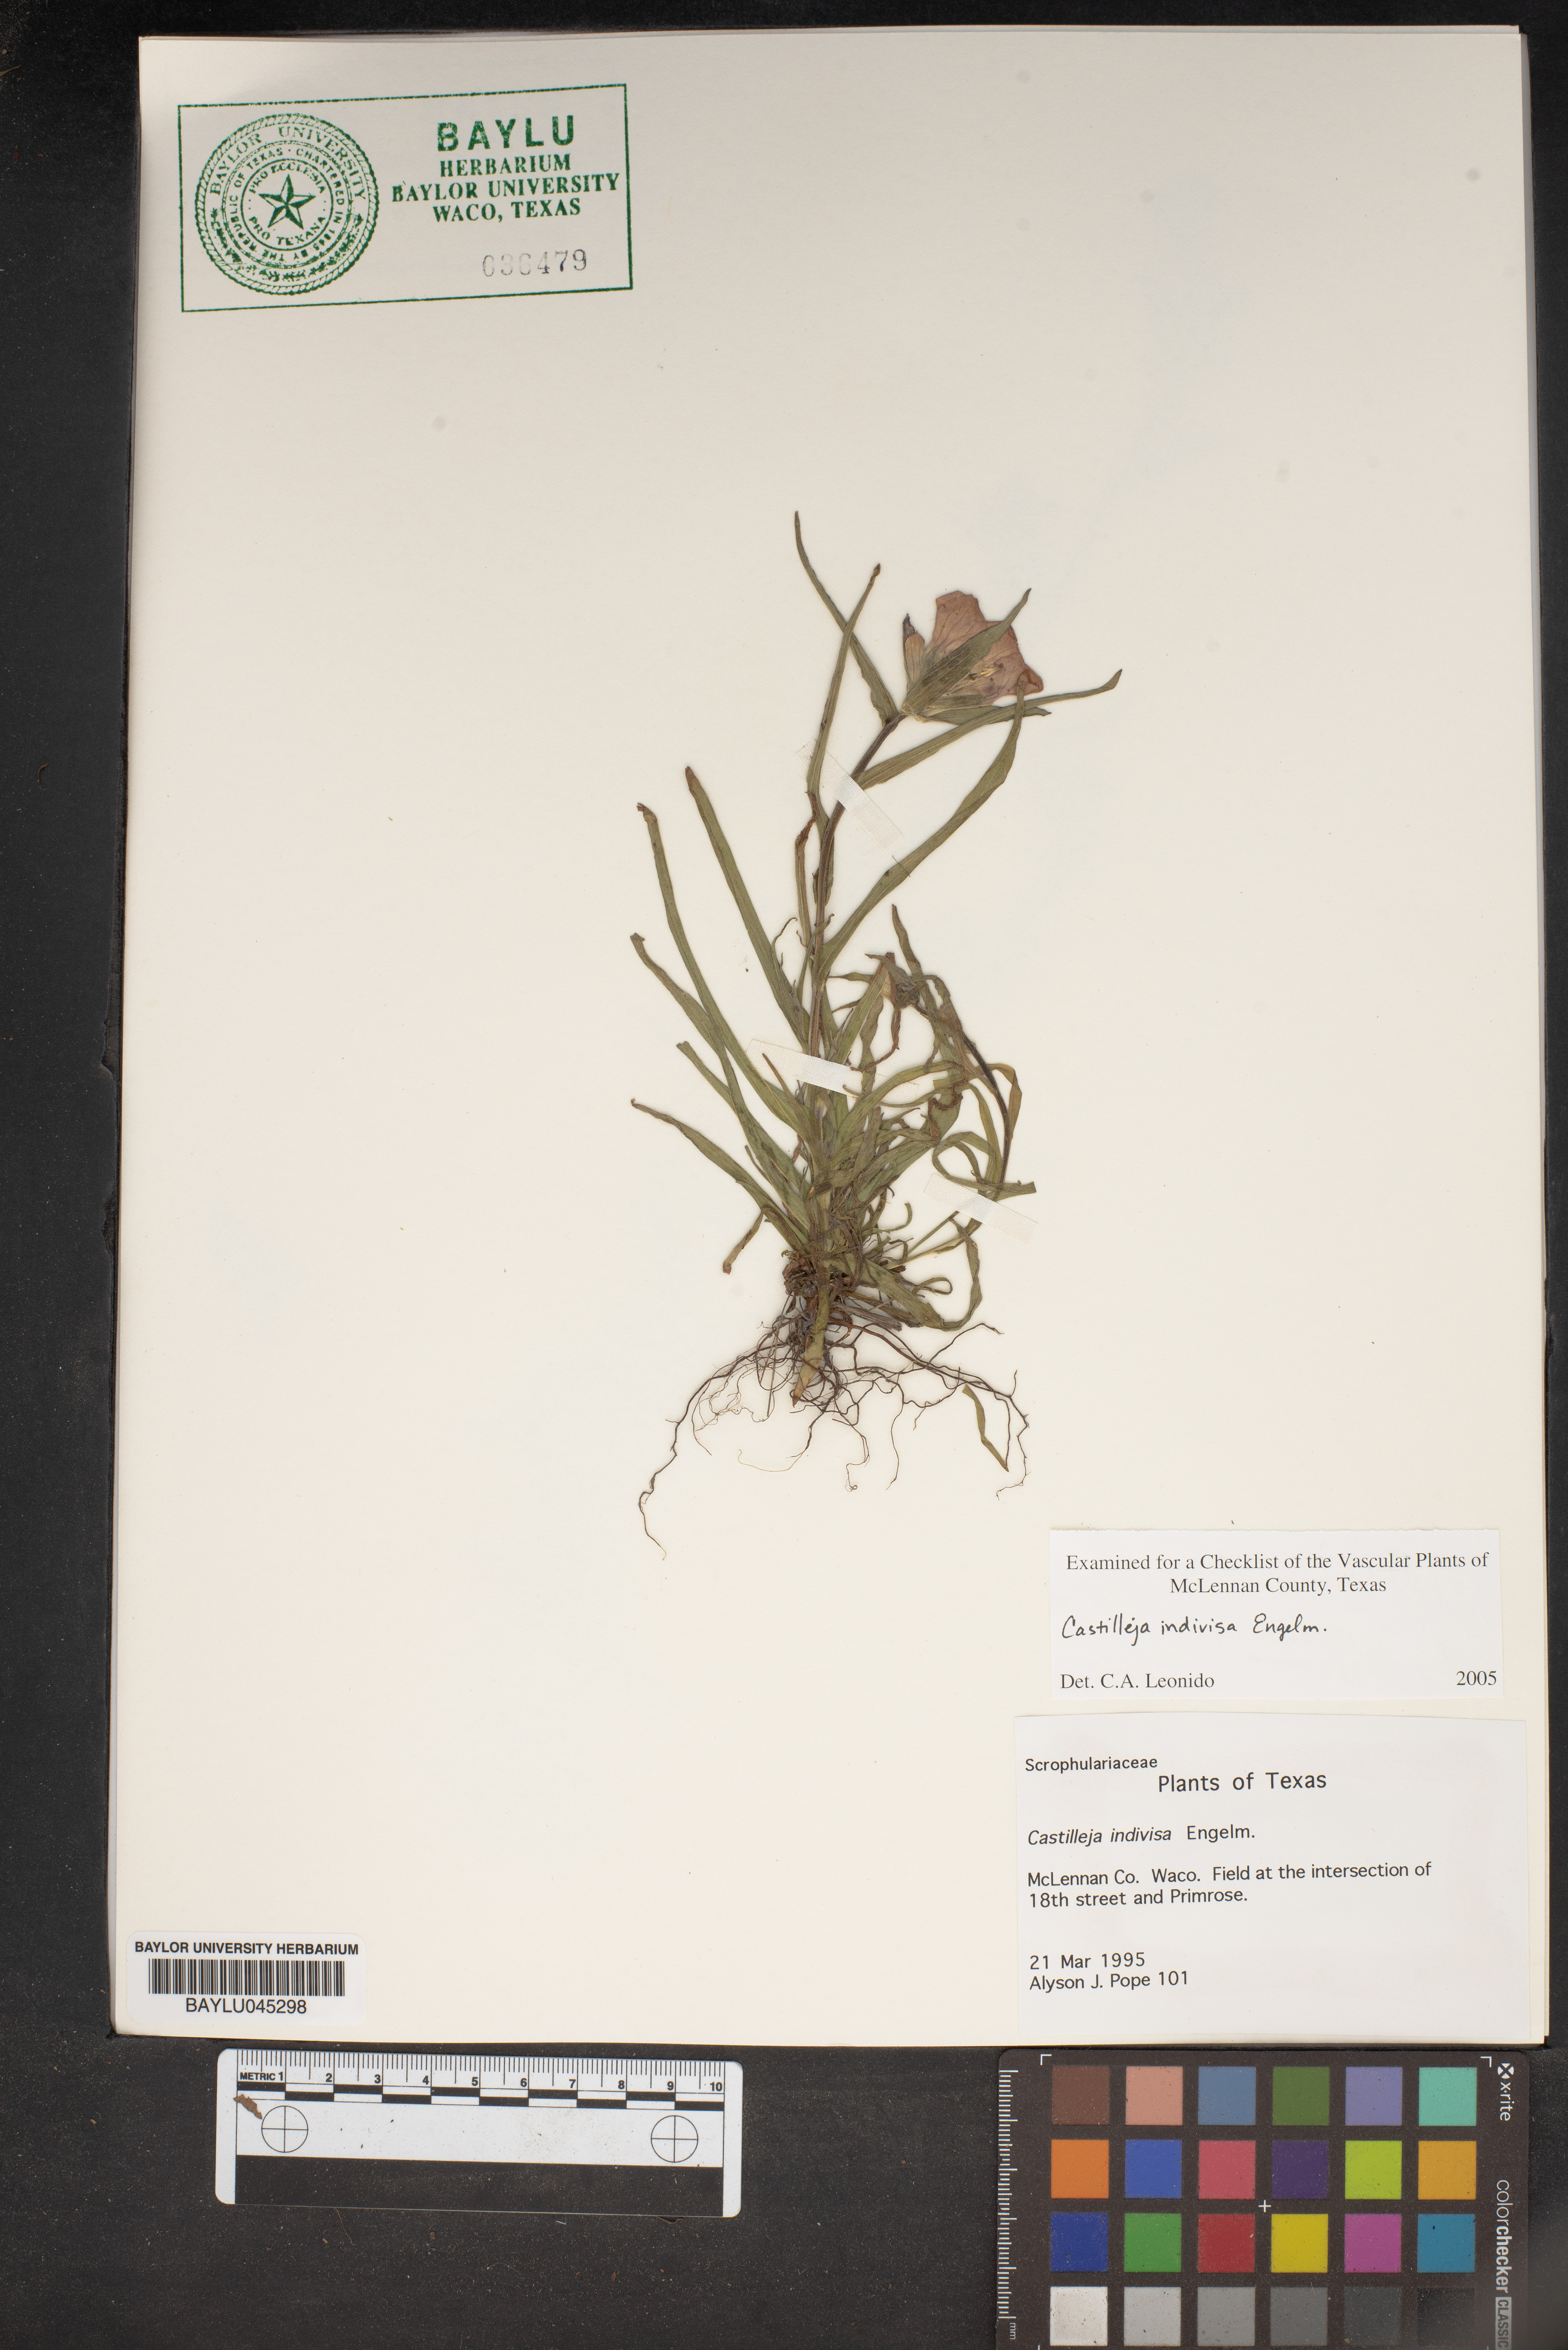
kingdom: Plantae
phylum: Tracheophyta
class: Magnoliopsida
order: Lamiales
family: Orobanchaceae
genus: Castilleja
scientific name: Castilleja indivisa
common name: Texas paintbrush
